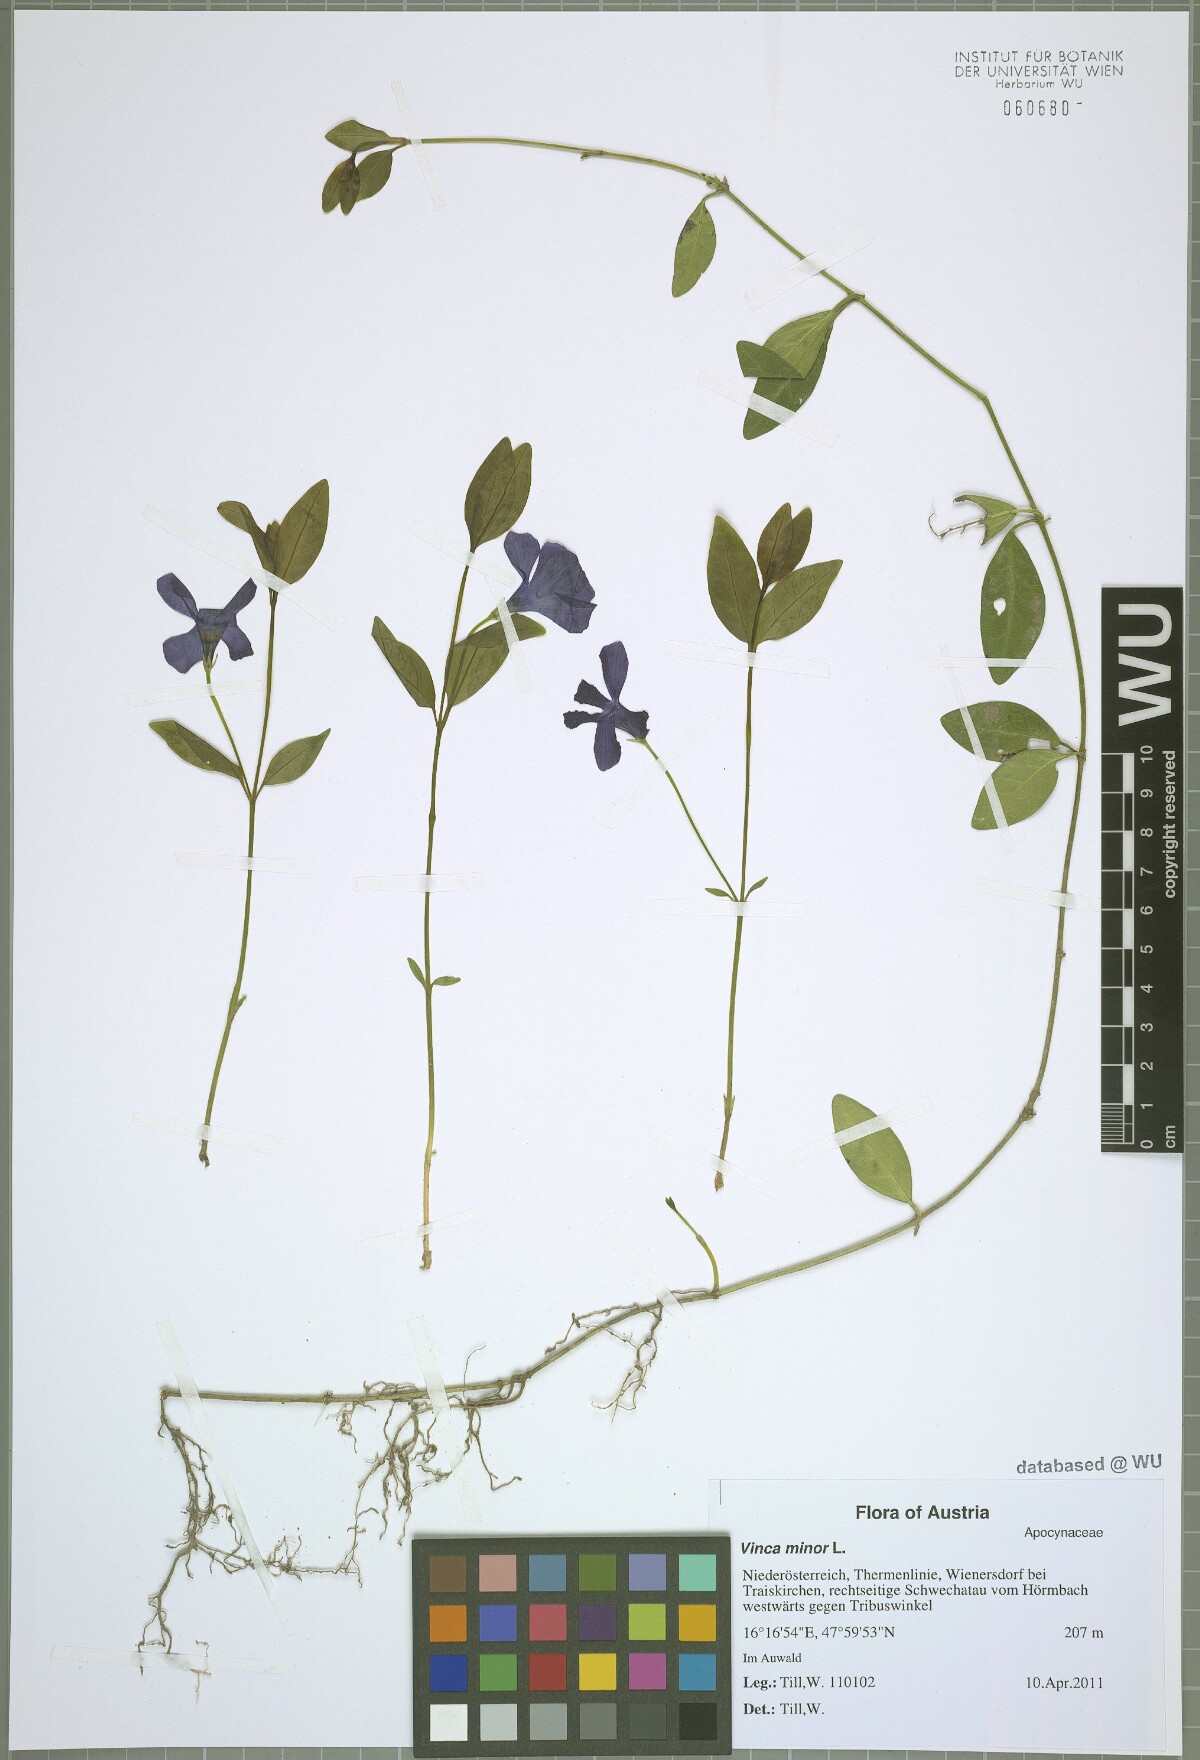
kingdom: Plantae
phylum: Tracheophyta
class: Magnoliopsida
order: Gentianales
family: Apocynaceae
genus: Vinca
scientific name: Vinca minor
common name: Lesser periwinkle
